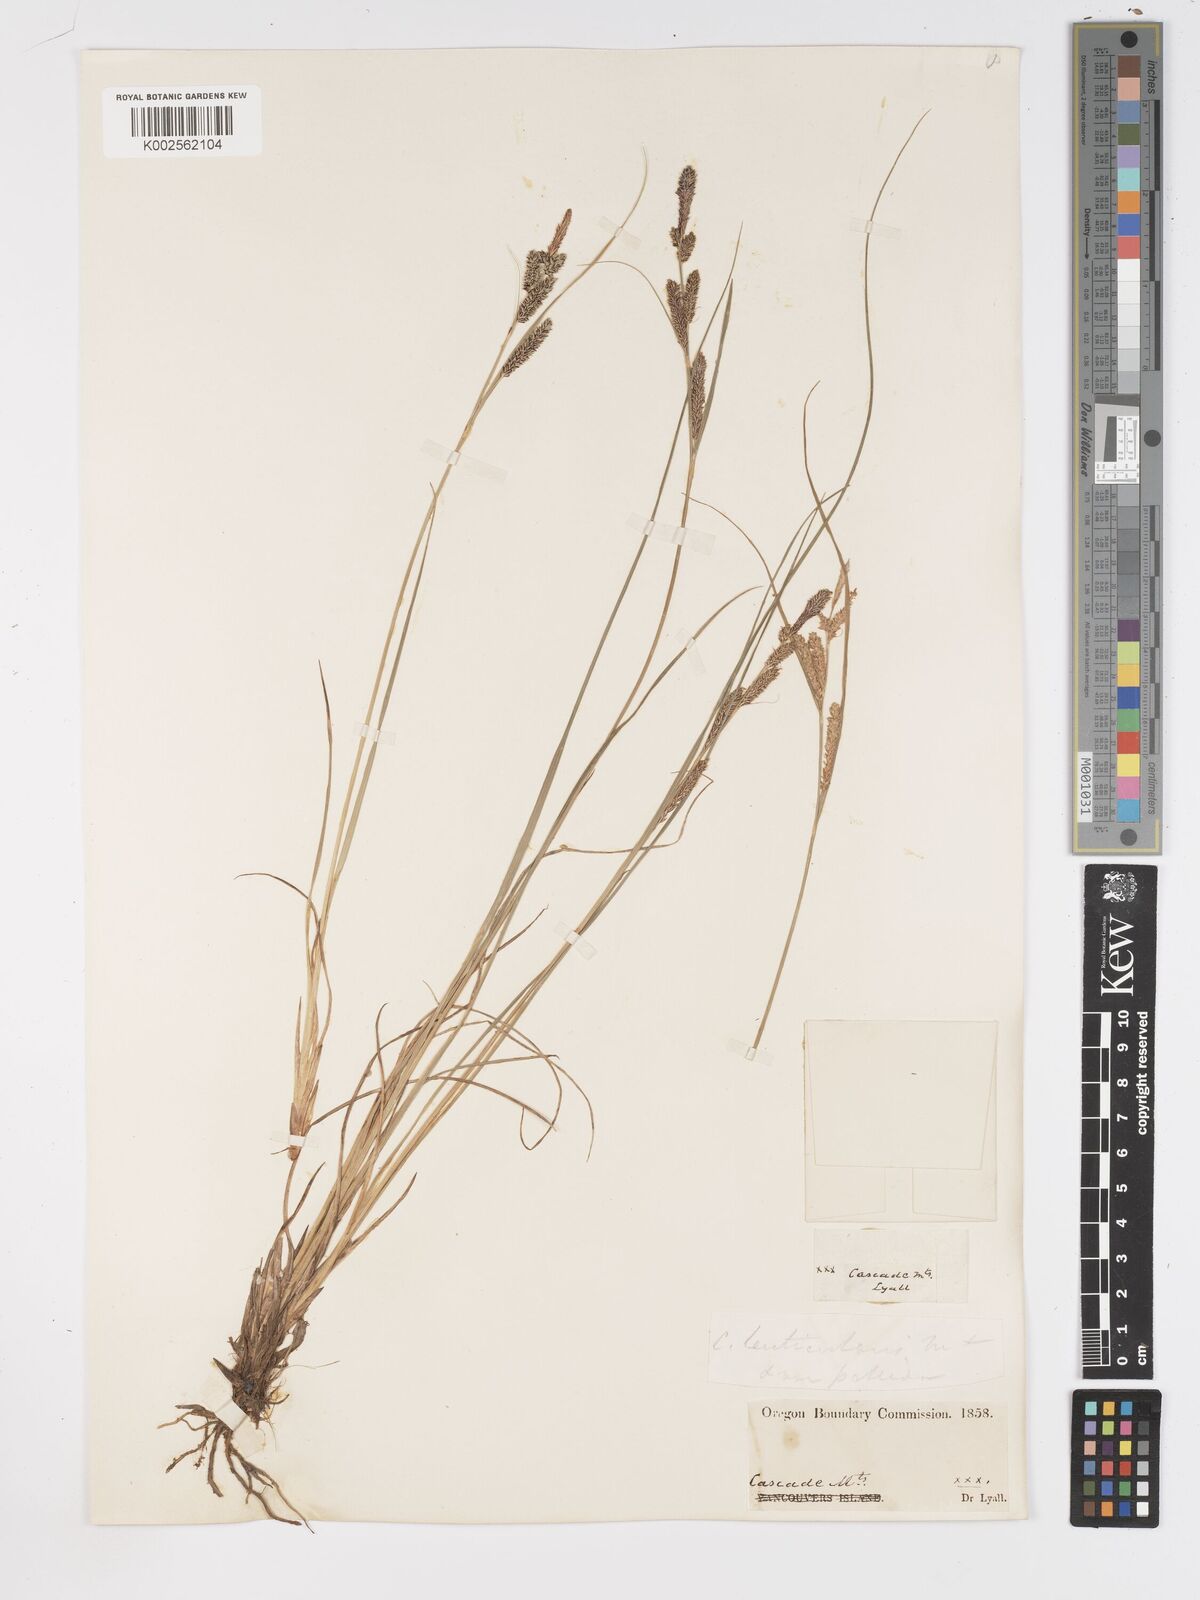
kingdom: Plantae
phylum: Tracheophyta
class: Liliopsida
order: Poales
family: Cyperaceae
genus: Carex
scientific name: Carex lenticularis
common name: Lakeshore sedge
